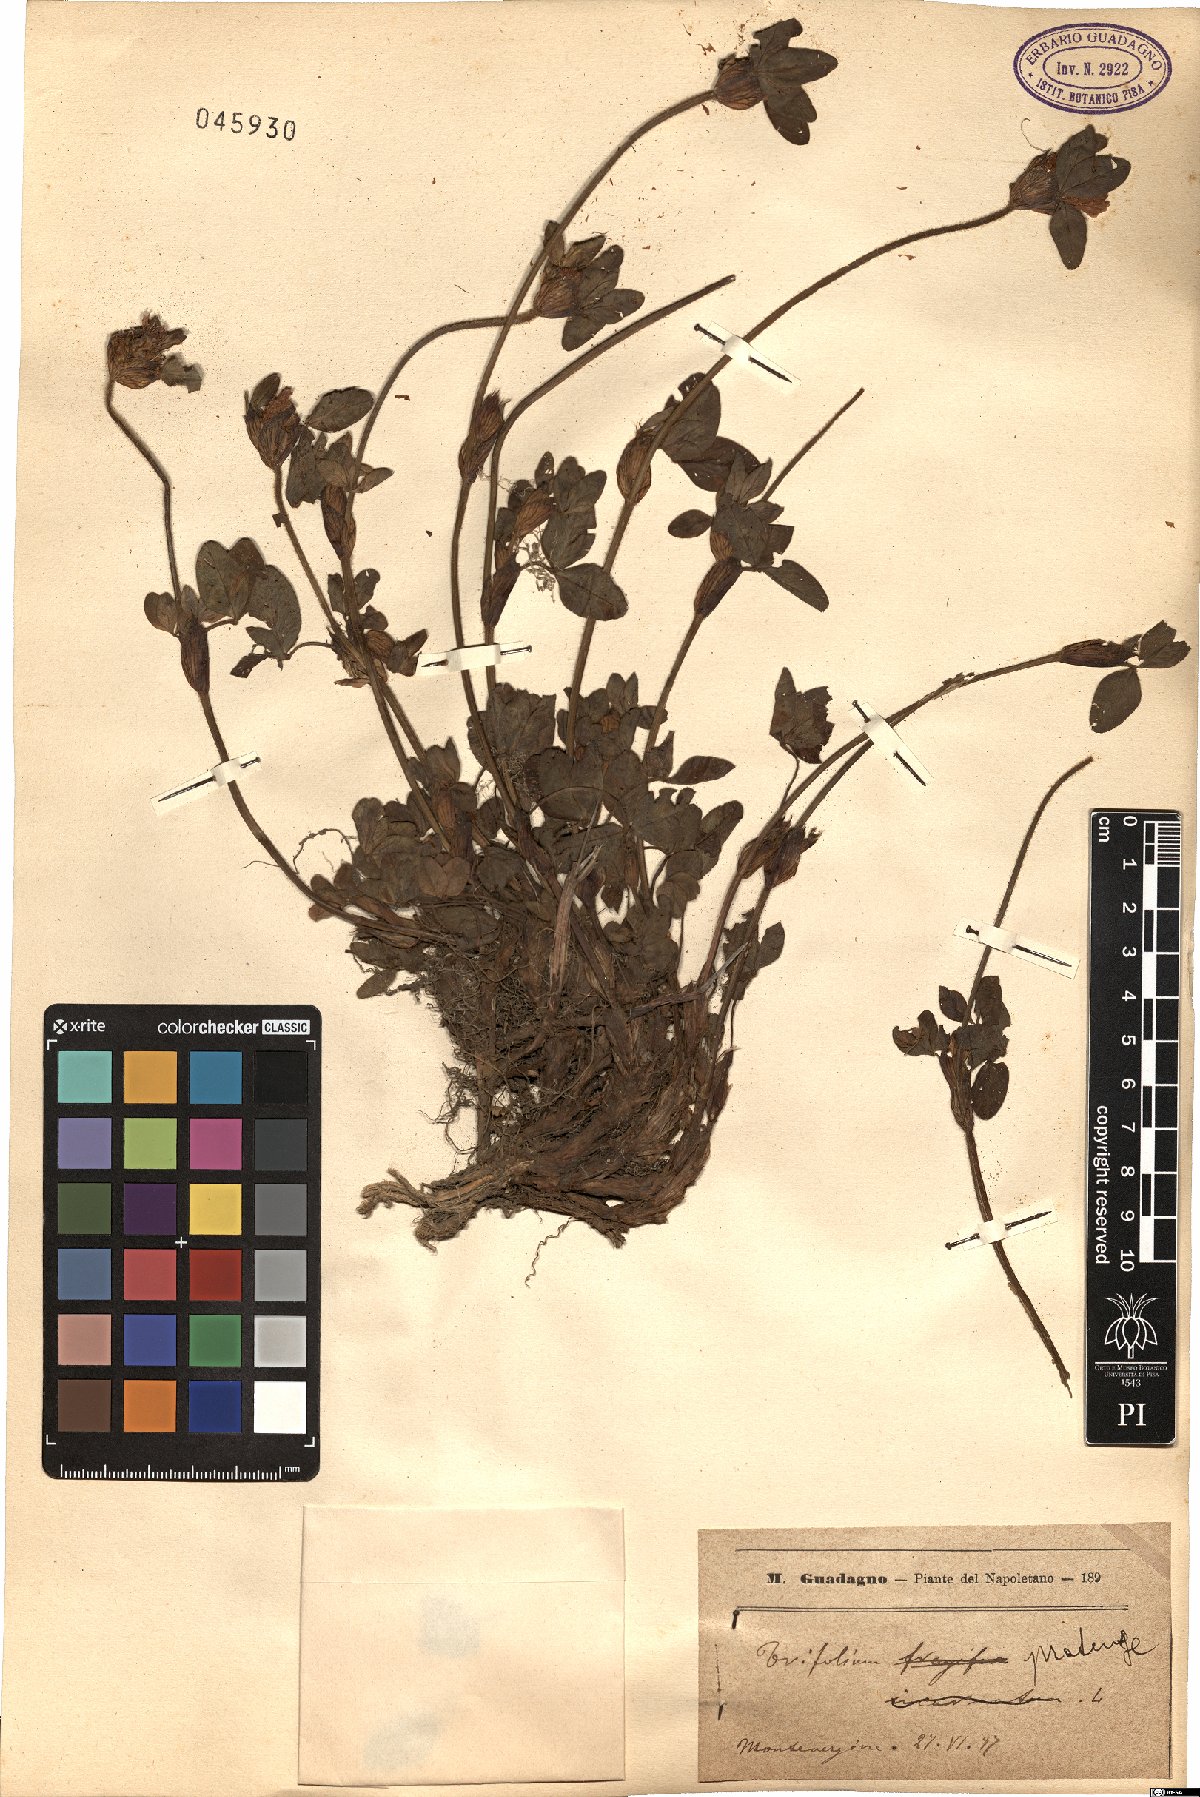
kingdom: Plantae
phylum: Tracheophyta
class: Magnoliopsida
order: Fabales
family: Fabaceae
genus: Trifolium
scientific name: Trifolium pratense
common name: Red clover
